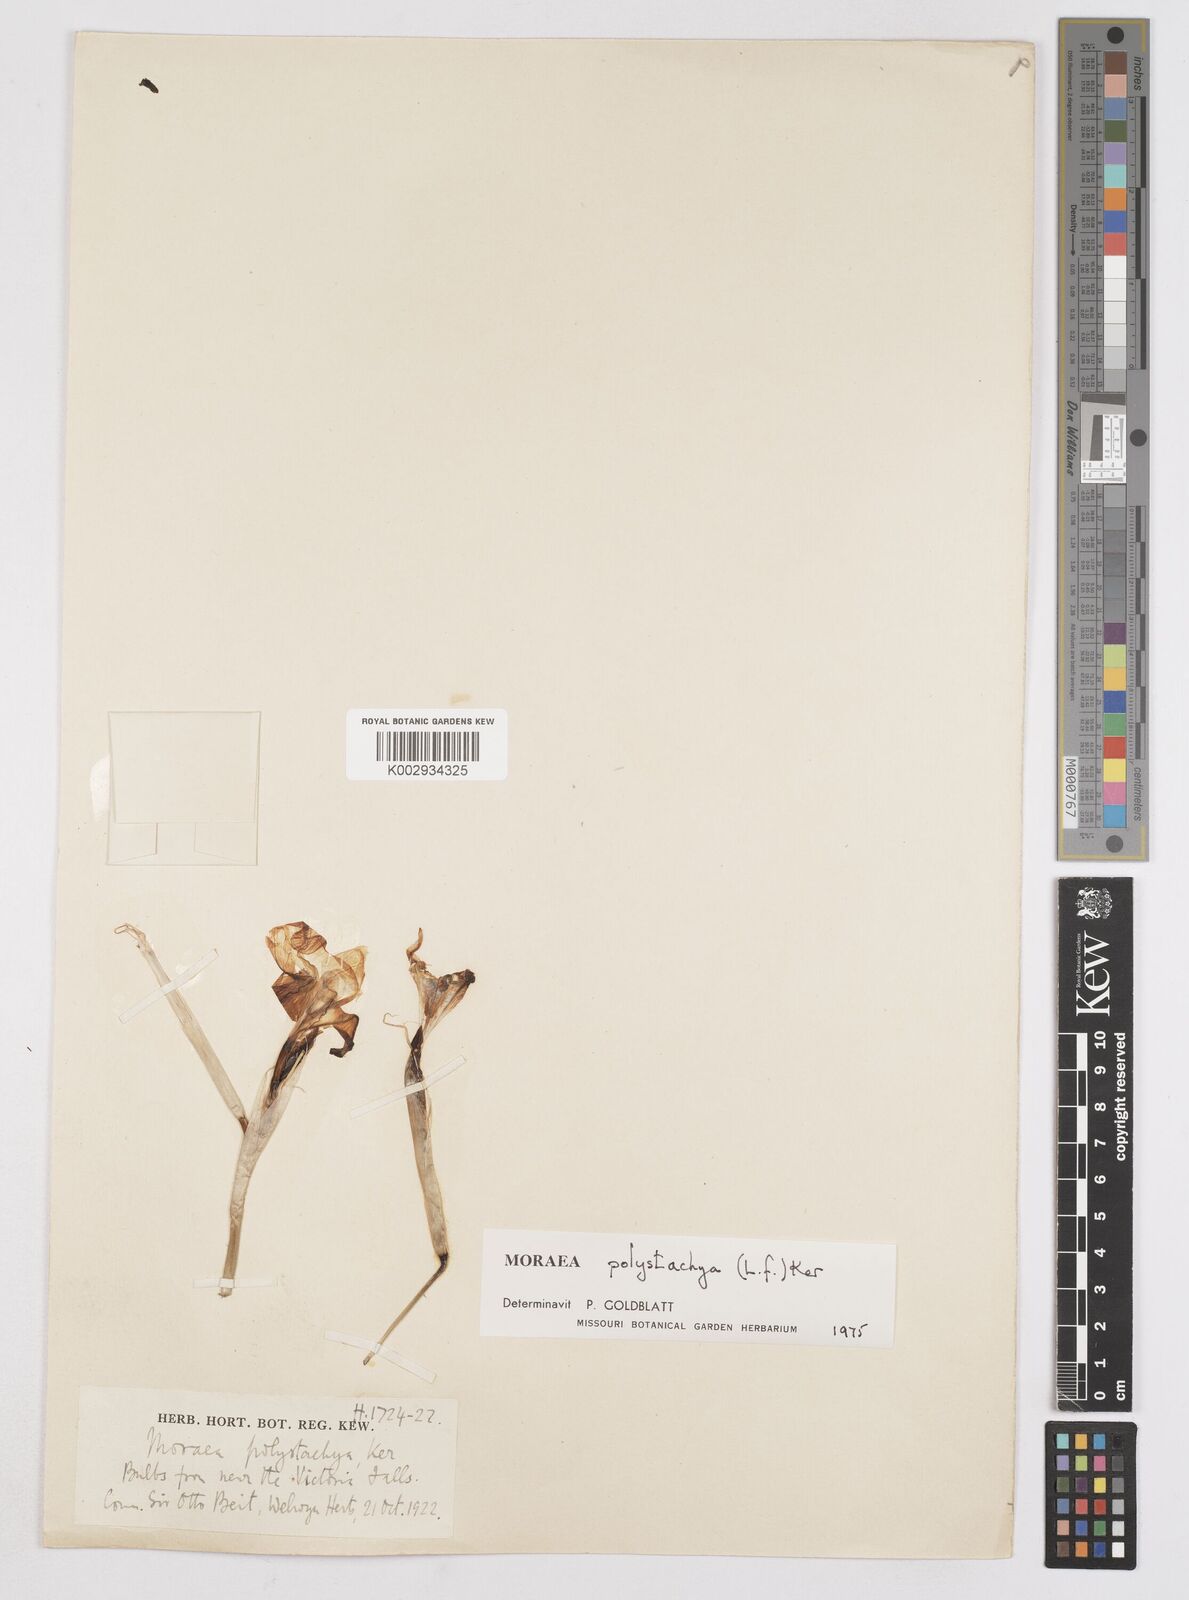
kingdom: Plantae
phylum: Tracheophyta
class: Liliopsida
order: Asparagales
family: Iridaceae
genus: Moraea
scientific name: Moraea polystachya
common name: Blue-tulip
